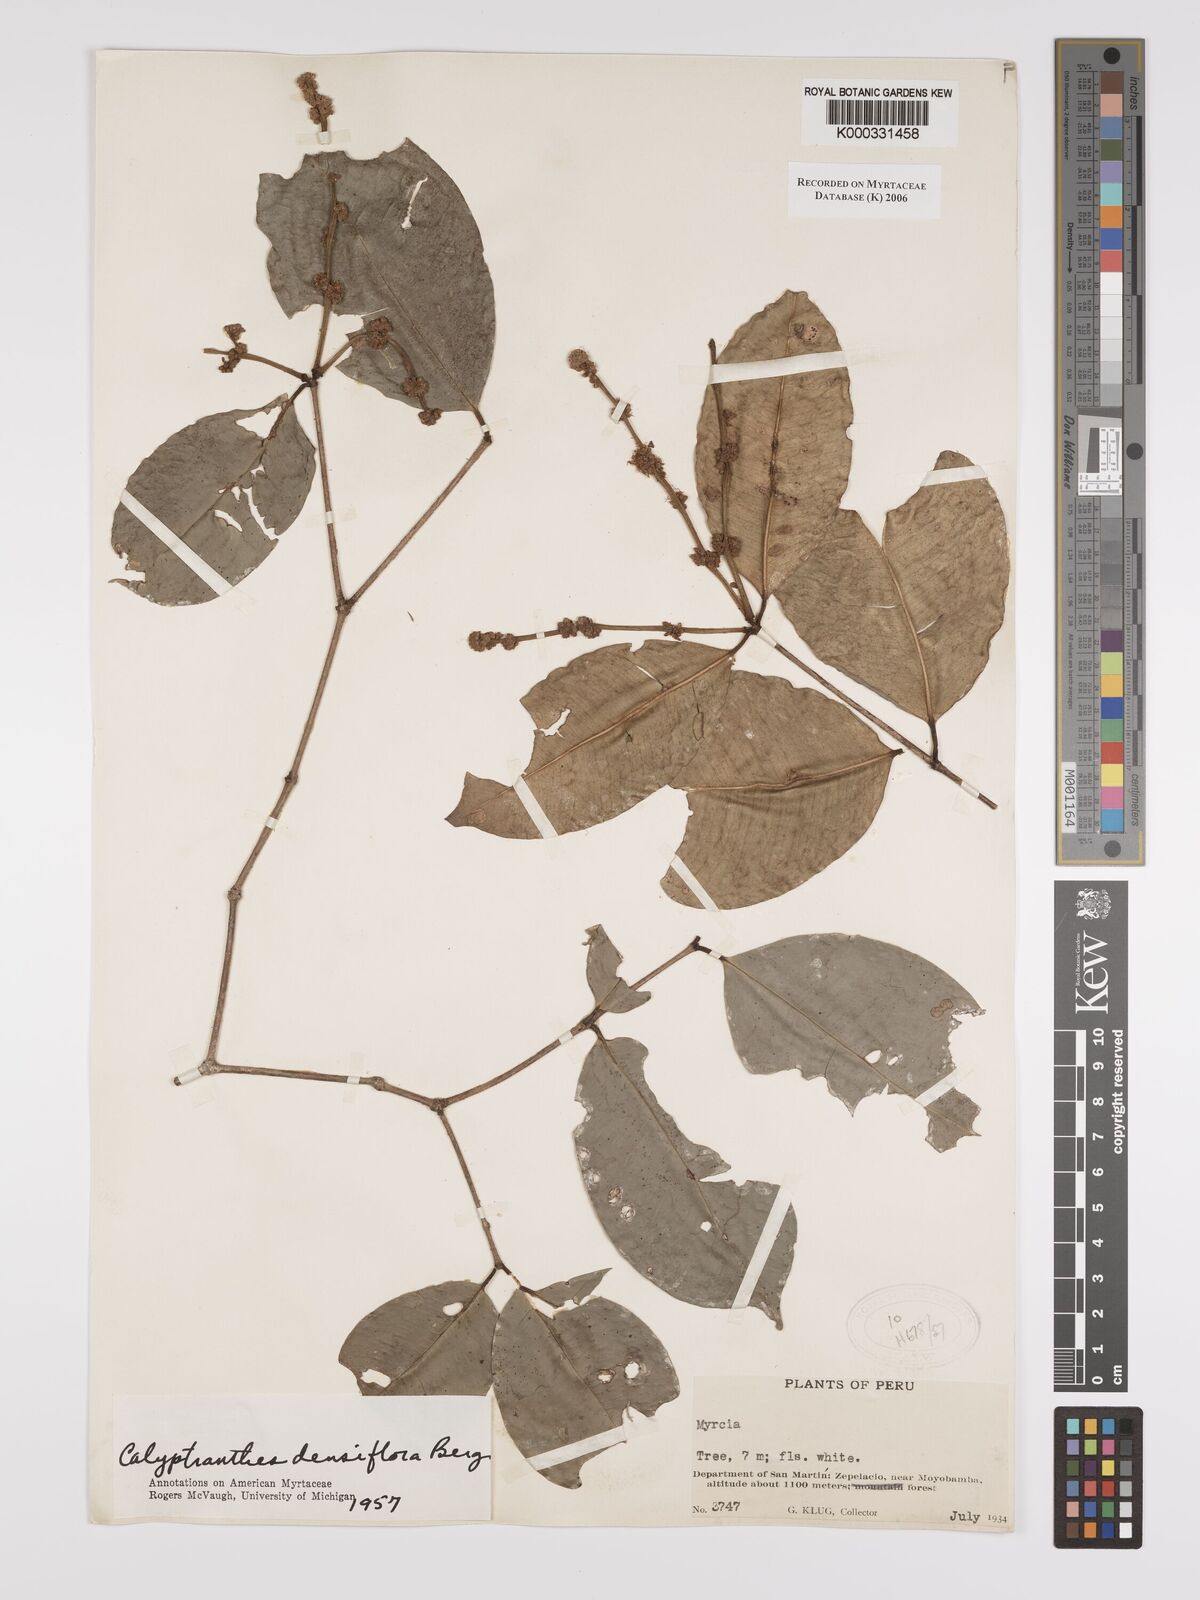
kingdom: Plantae
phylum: Tracheophyta
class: Magnoliopsida
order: Myrtales
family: Myrtaceae
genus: Myrcia
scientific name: Myrcia densiflora
